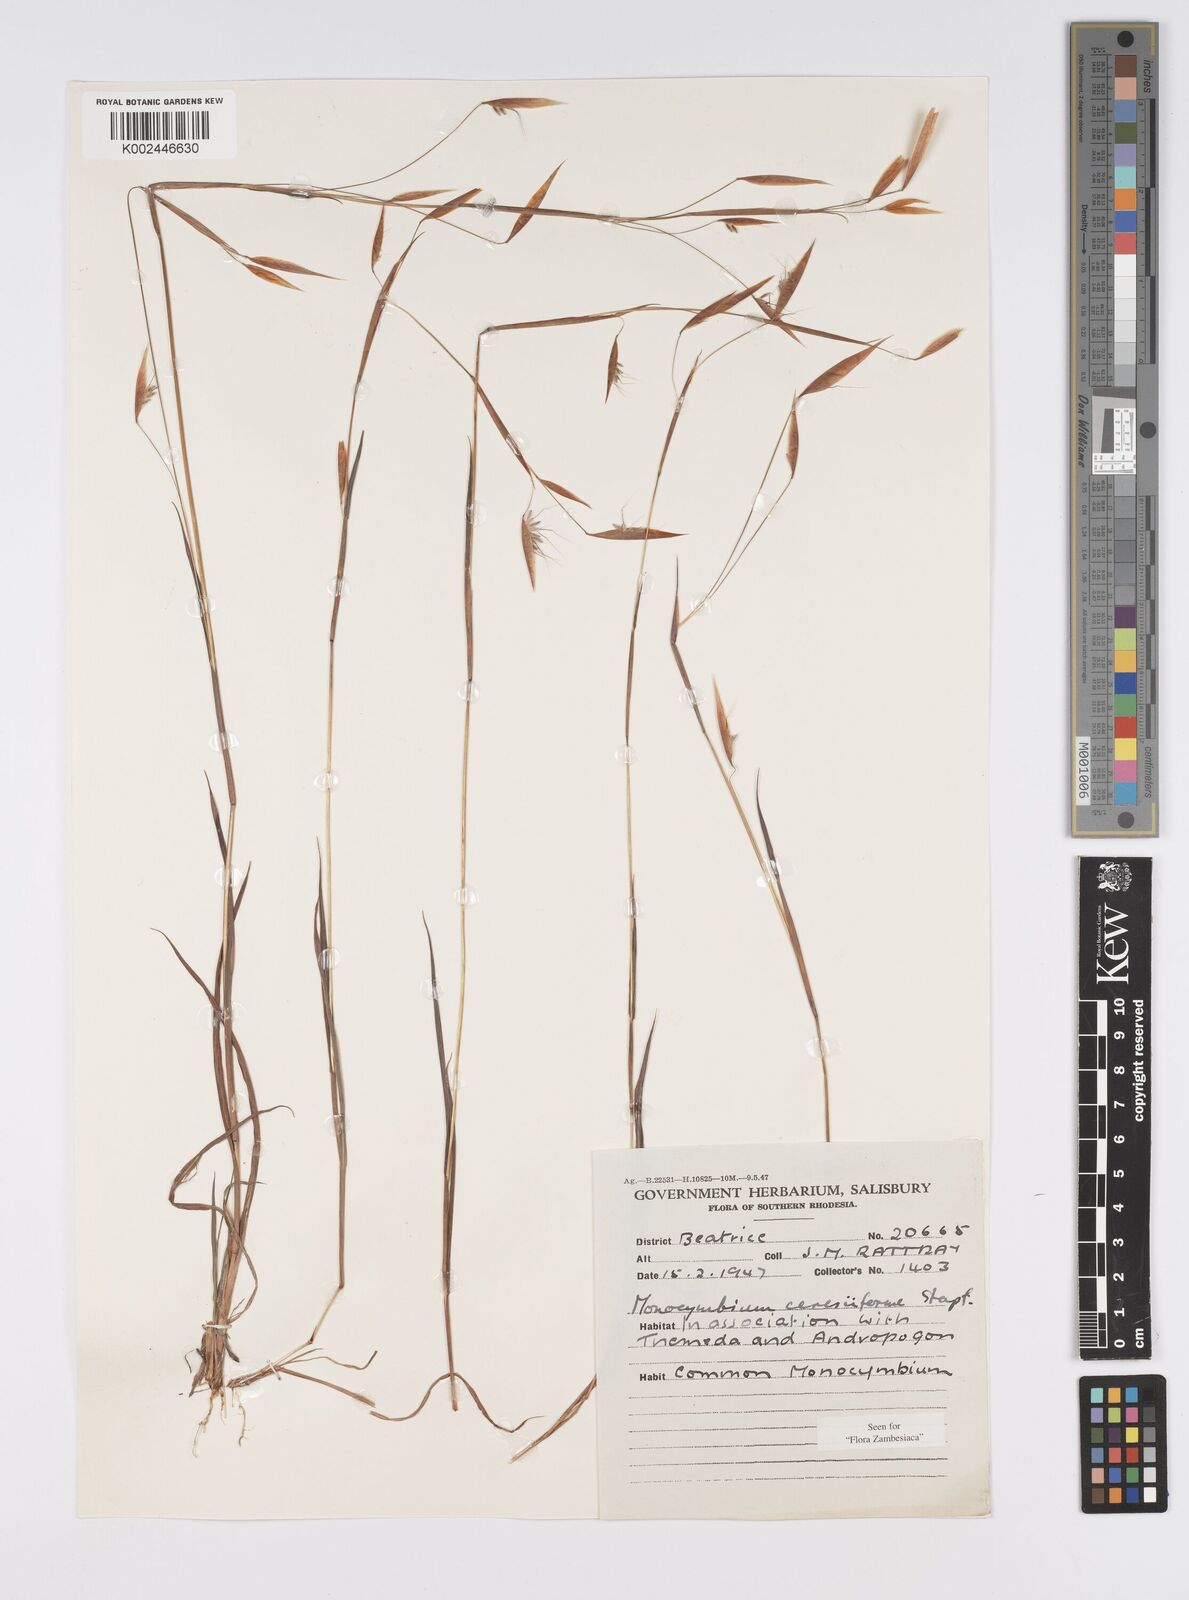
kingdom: Plantae
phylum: Tracheophyta
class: Liliopsida
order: Poales
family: Poaceae
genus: Monocymbium
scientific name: Monocymbium ceresiiforme
